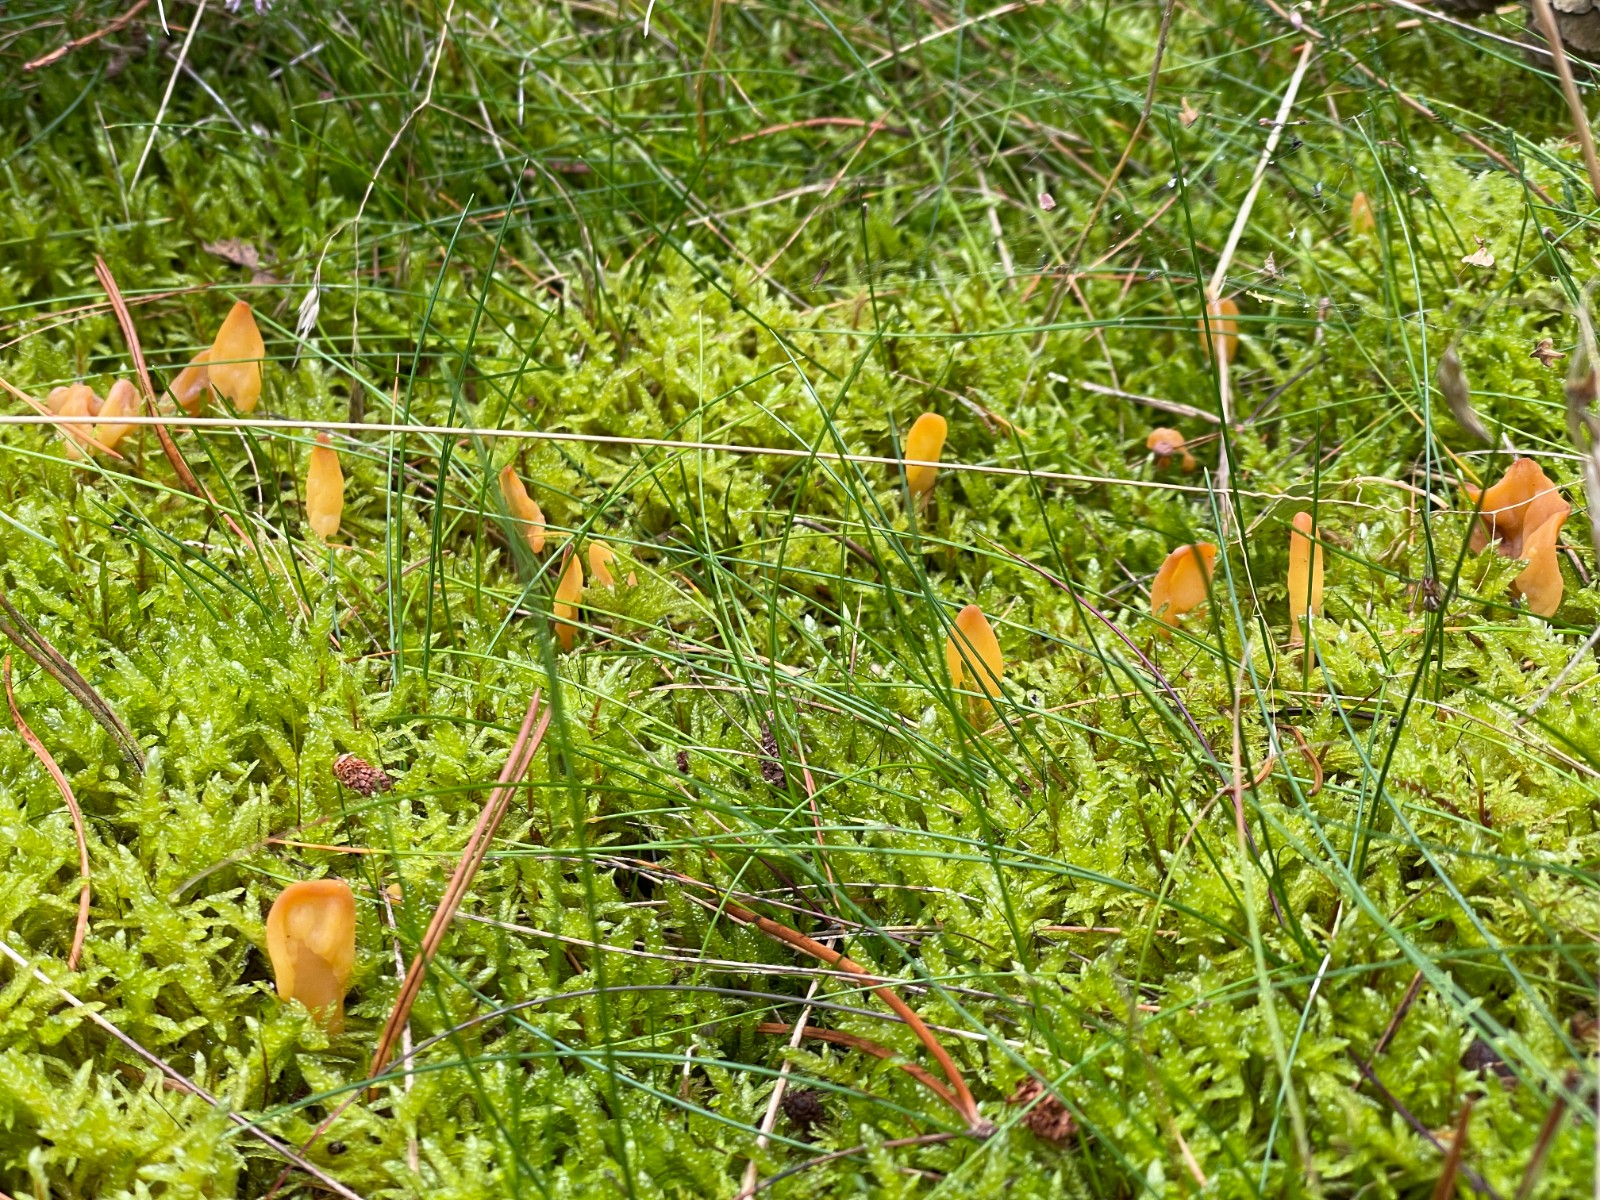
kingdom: Fungi
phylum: Ascomycota
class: Leotiomycetes
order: Rhytismatales
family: Cudoniaceae
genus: Spathularia
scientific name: Spathularia flavida
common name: gul spatelsvamp
